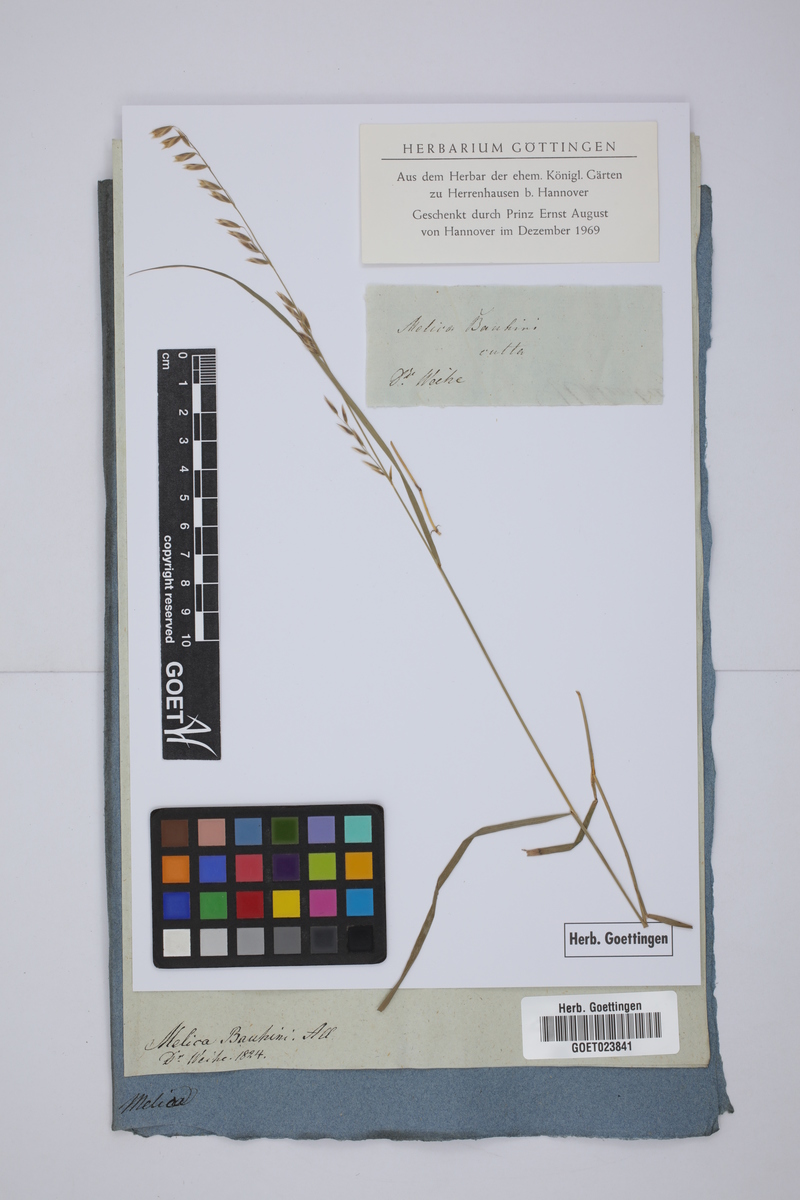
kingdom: Plantae
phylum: Tracheophyta
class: Liliopsida
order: Poales
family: Poaceae
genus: Melica
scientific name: Melica amethystina
